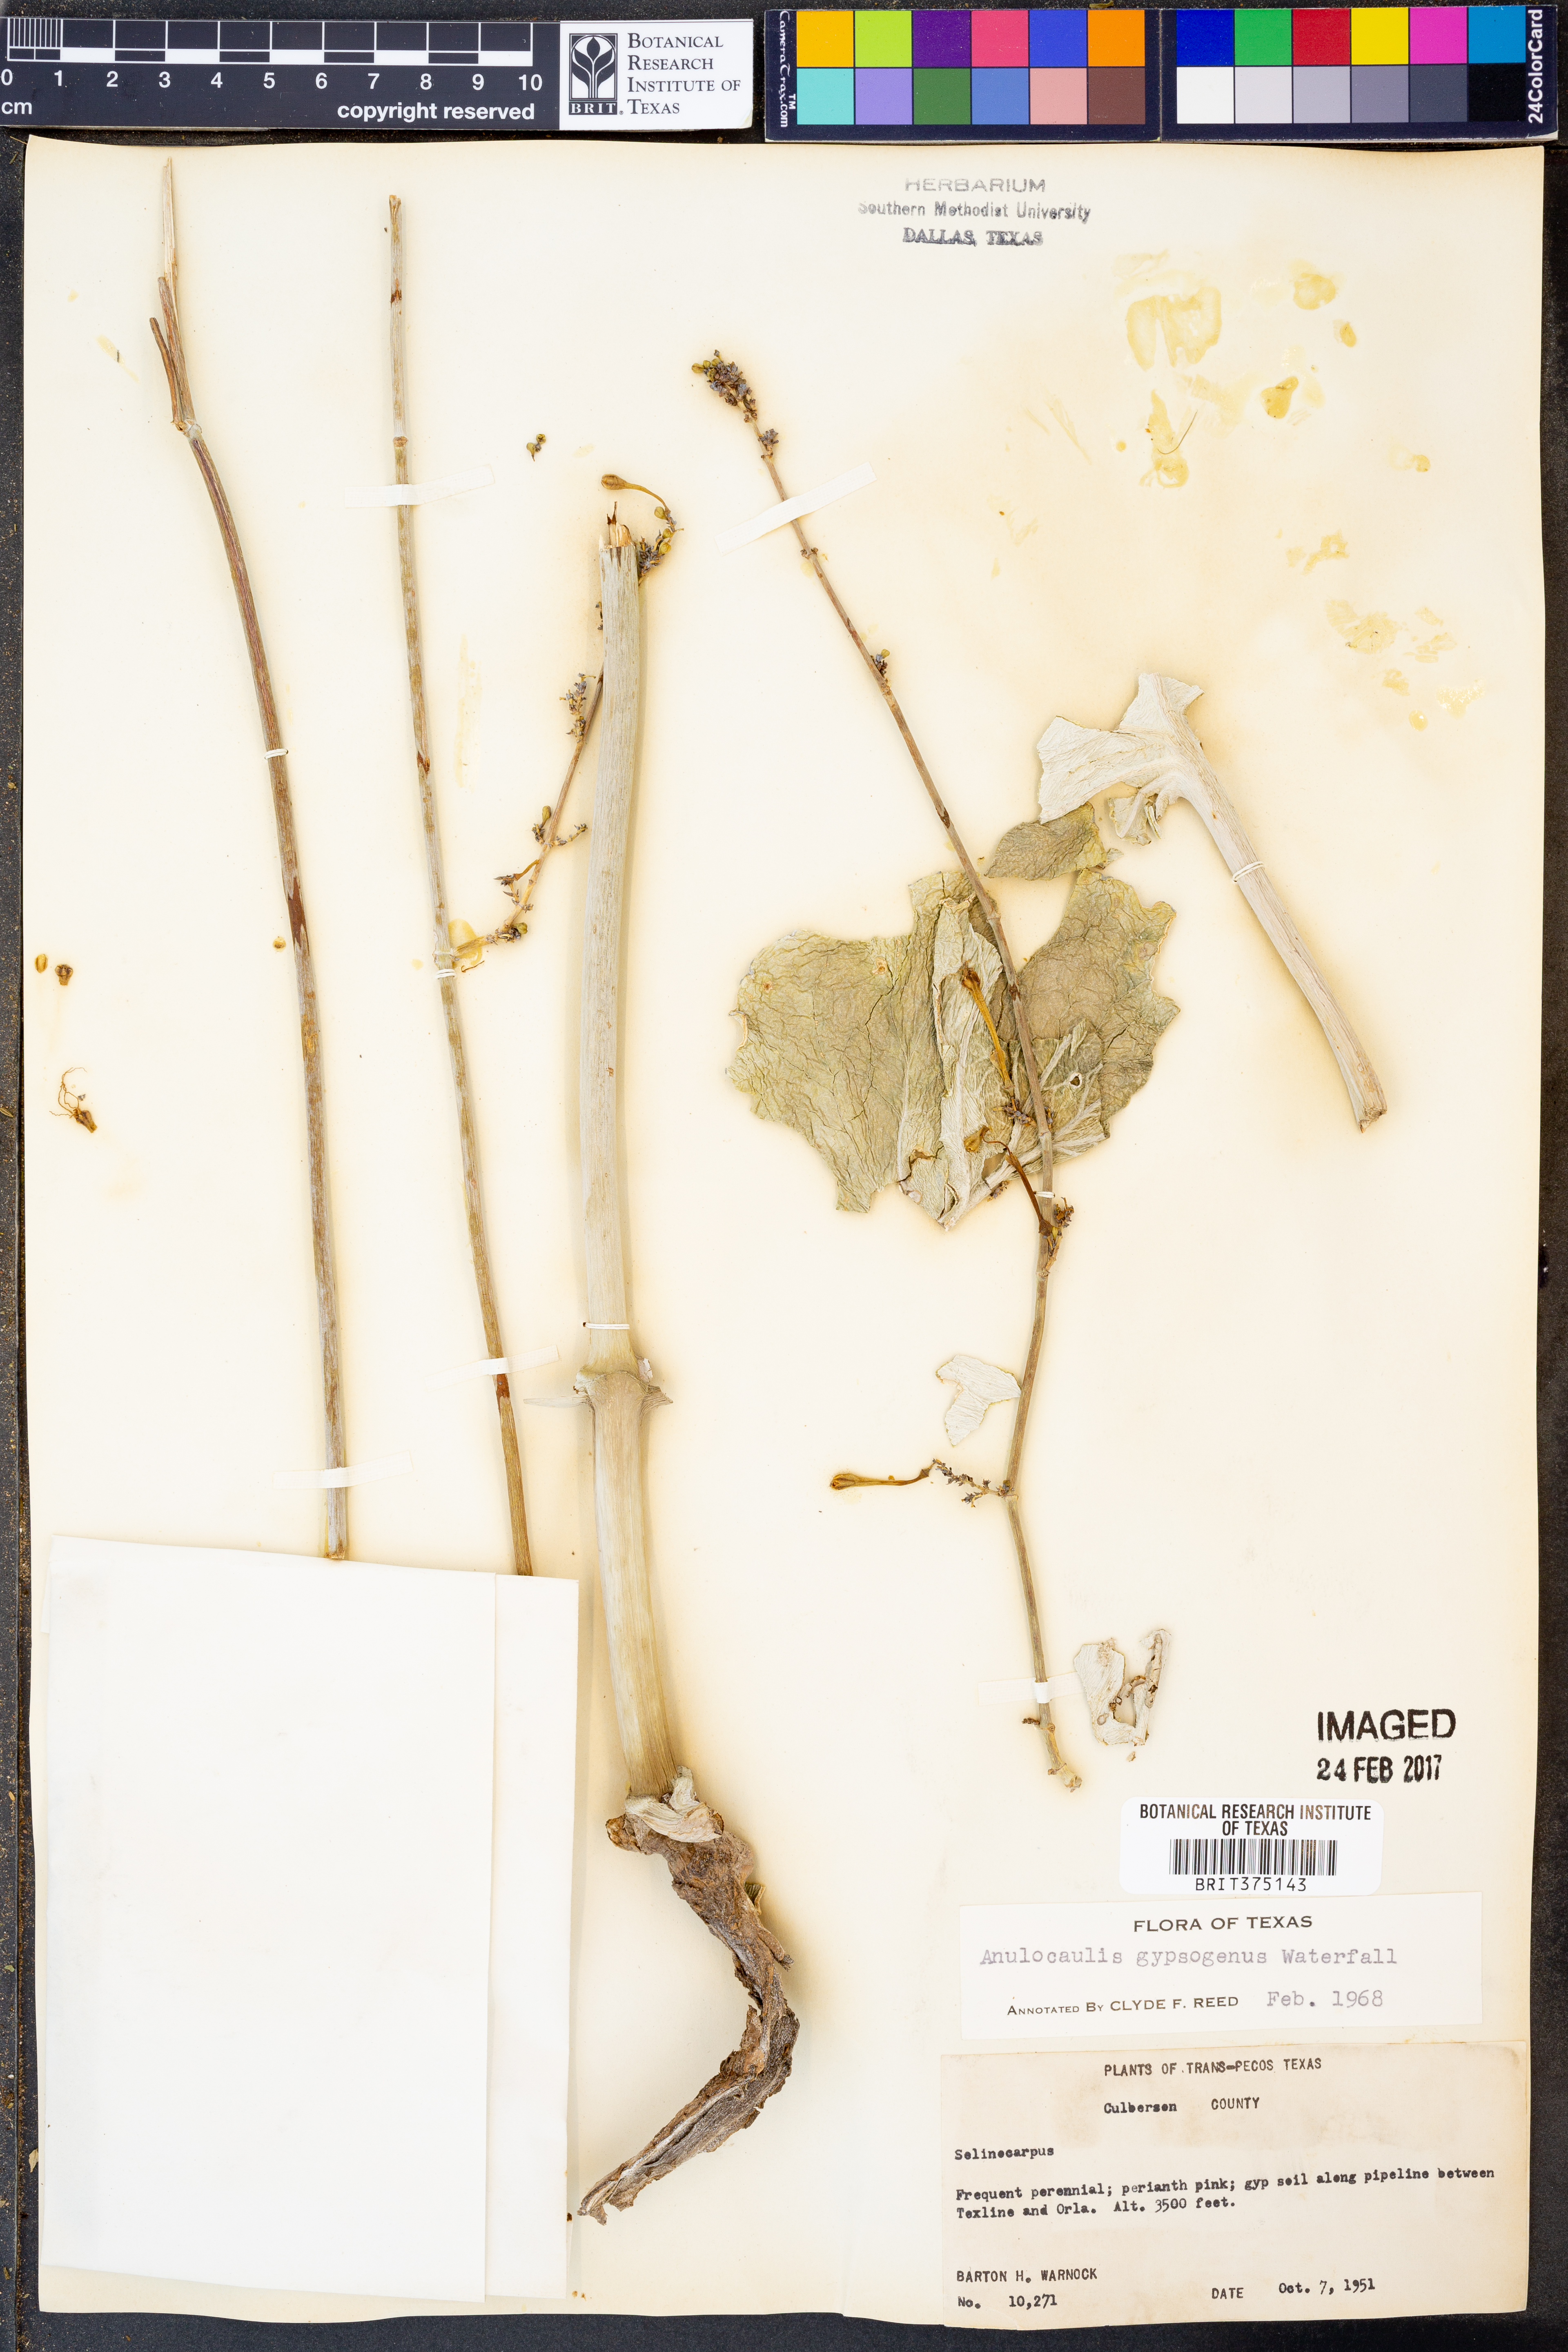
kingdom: Plantae
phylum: Tracheophyta
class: Magnoliopsida
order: Caryophyllales
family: Nyctaginaceae
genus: Anulocaulis
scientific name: Anulocaulis leiosolenus
